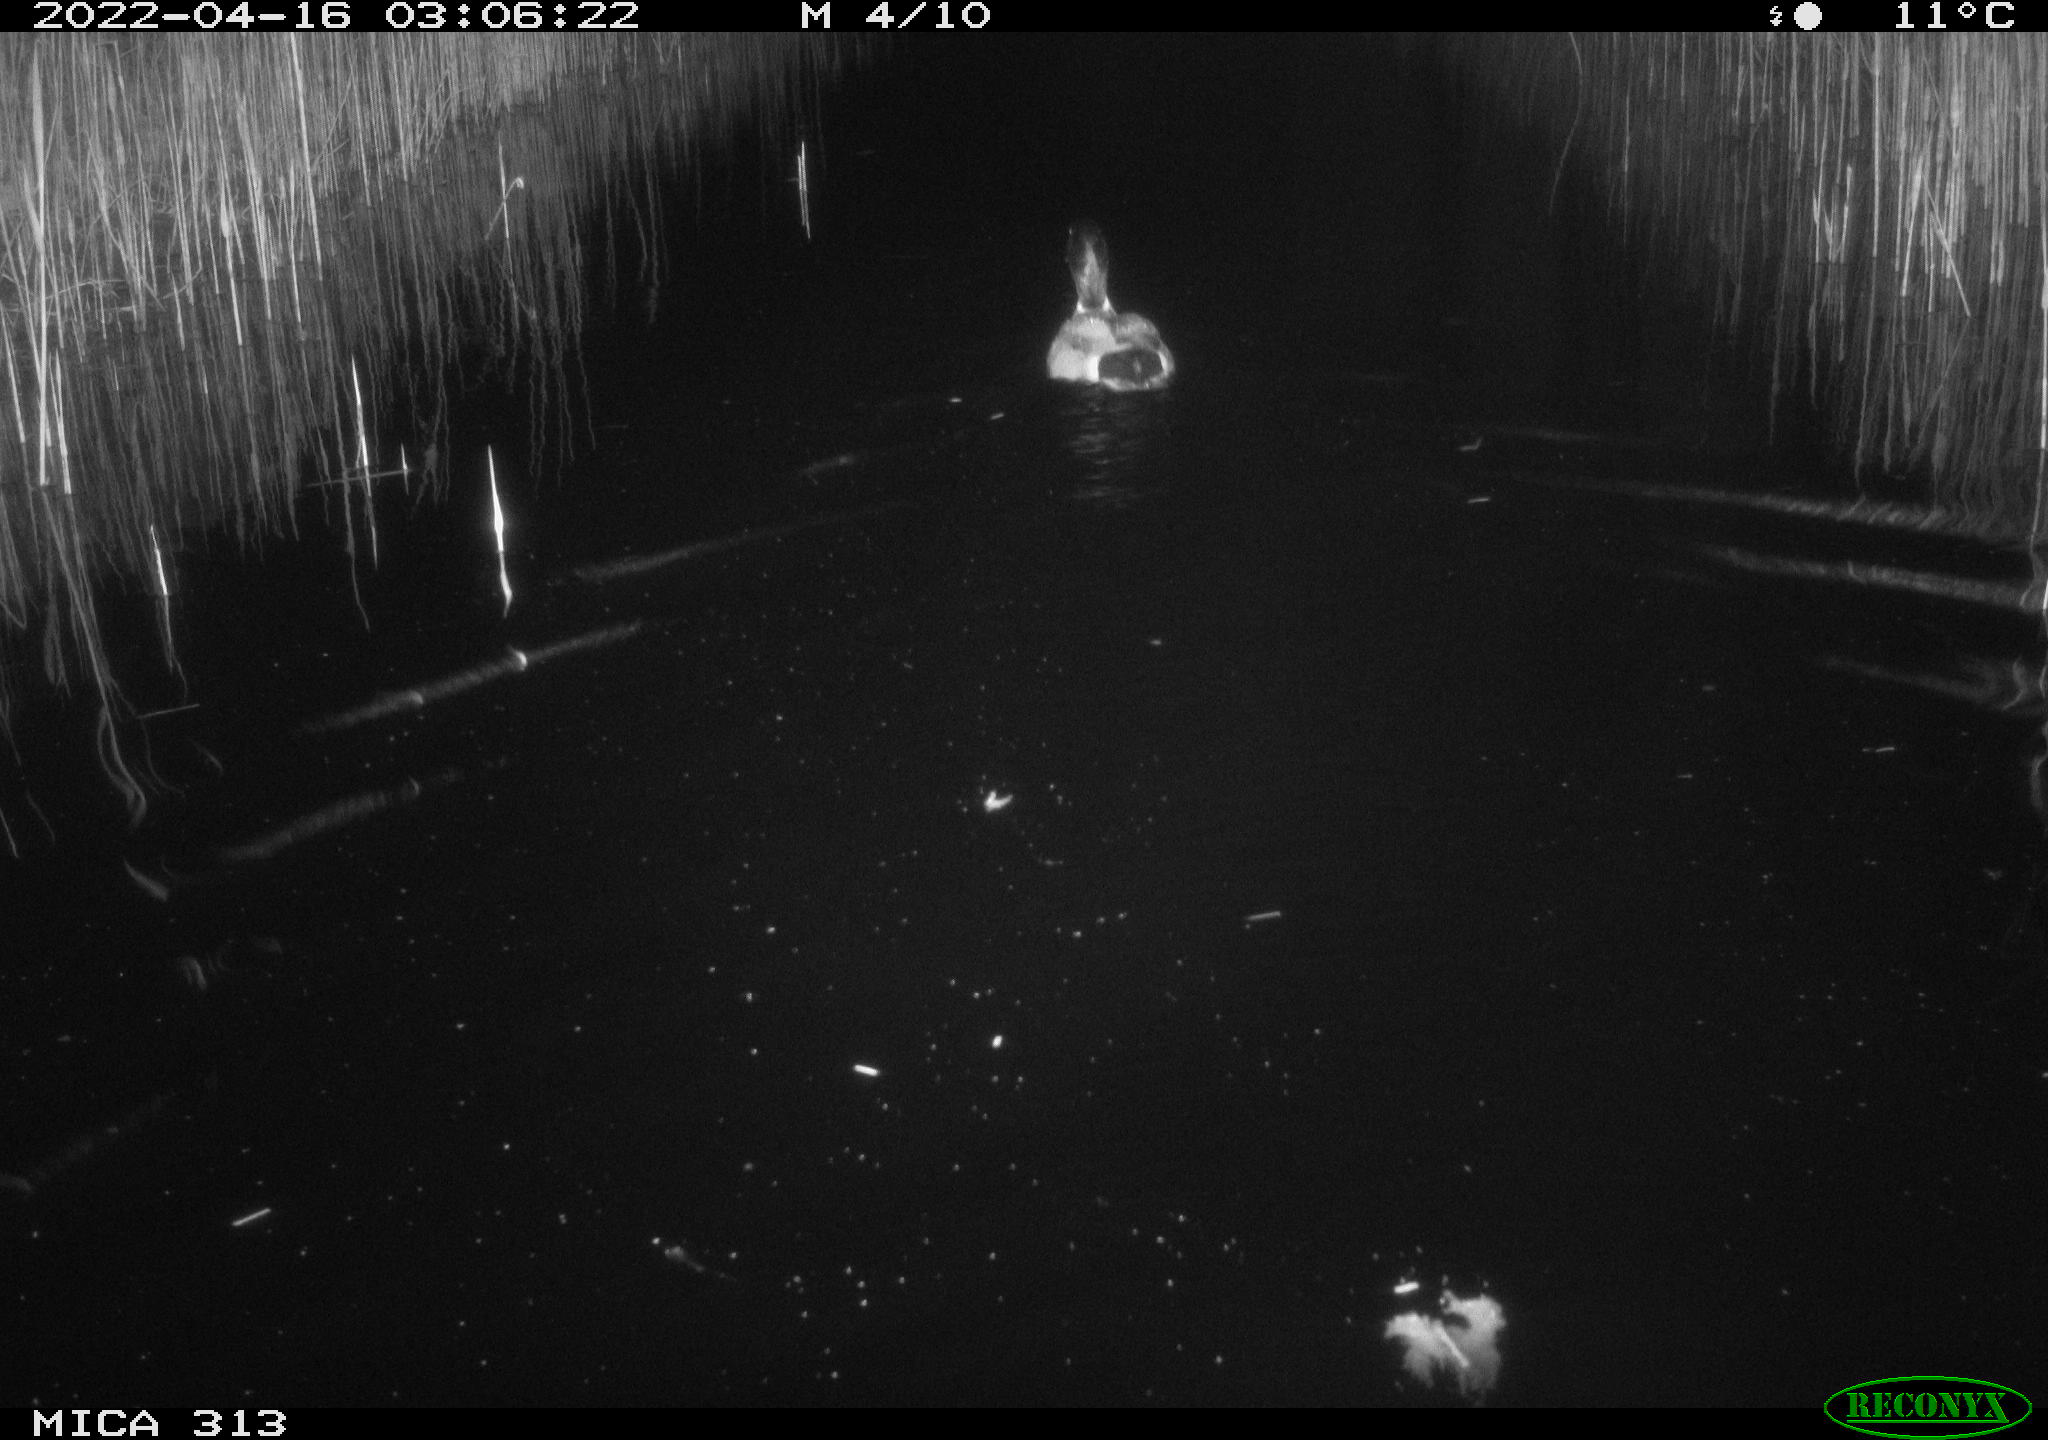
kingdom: Animalia
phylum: Chordata
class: Aves
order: Anseriformes
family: Anatidae
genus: Anas
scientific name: Anas platyrhynchos
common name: Mallard
